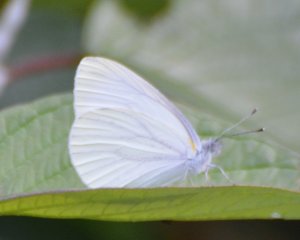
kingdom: Animalia
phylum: Arthropoda
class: Insecta
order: Lepidoptera
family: Pieridae
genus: Pieris
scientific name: Pieris oleracea
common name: Mustard White
